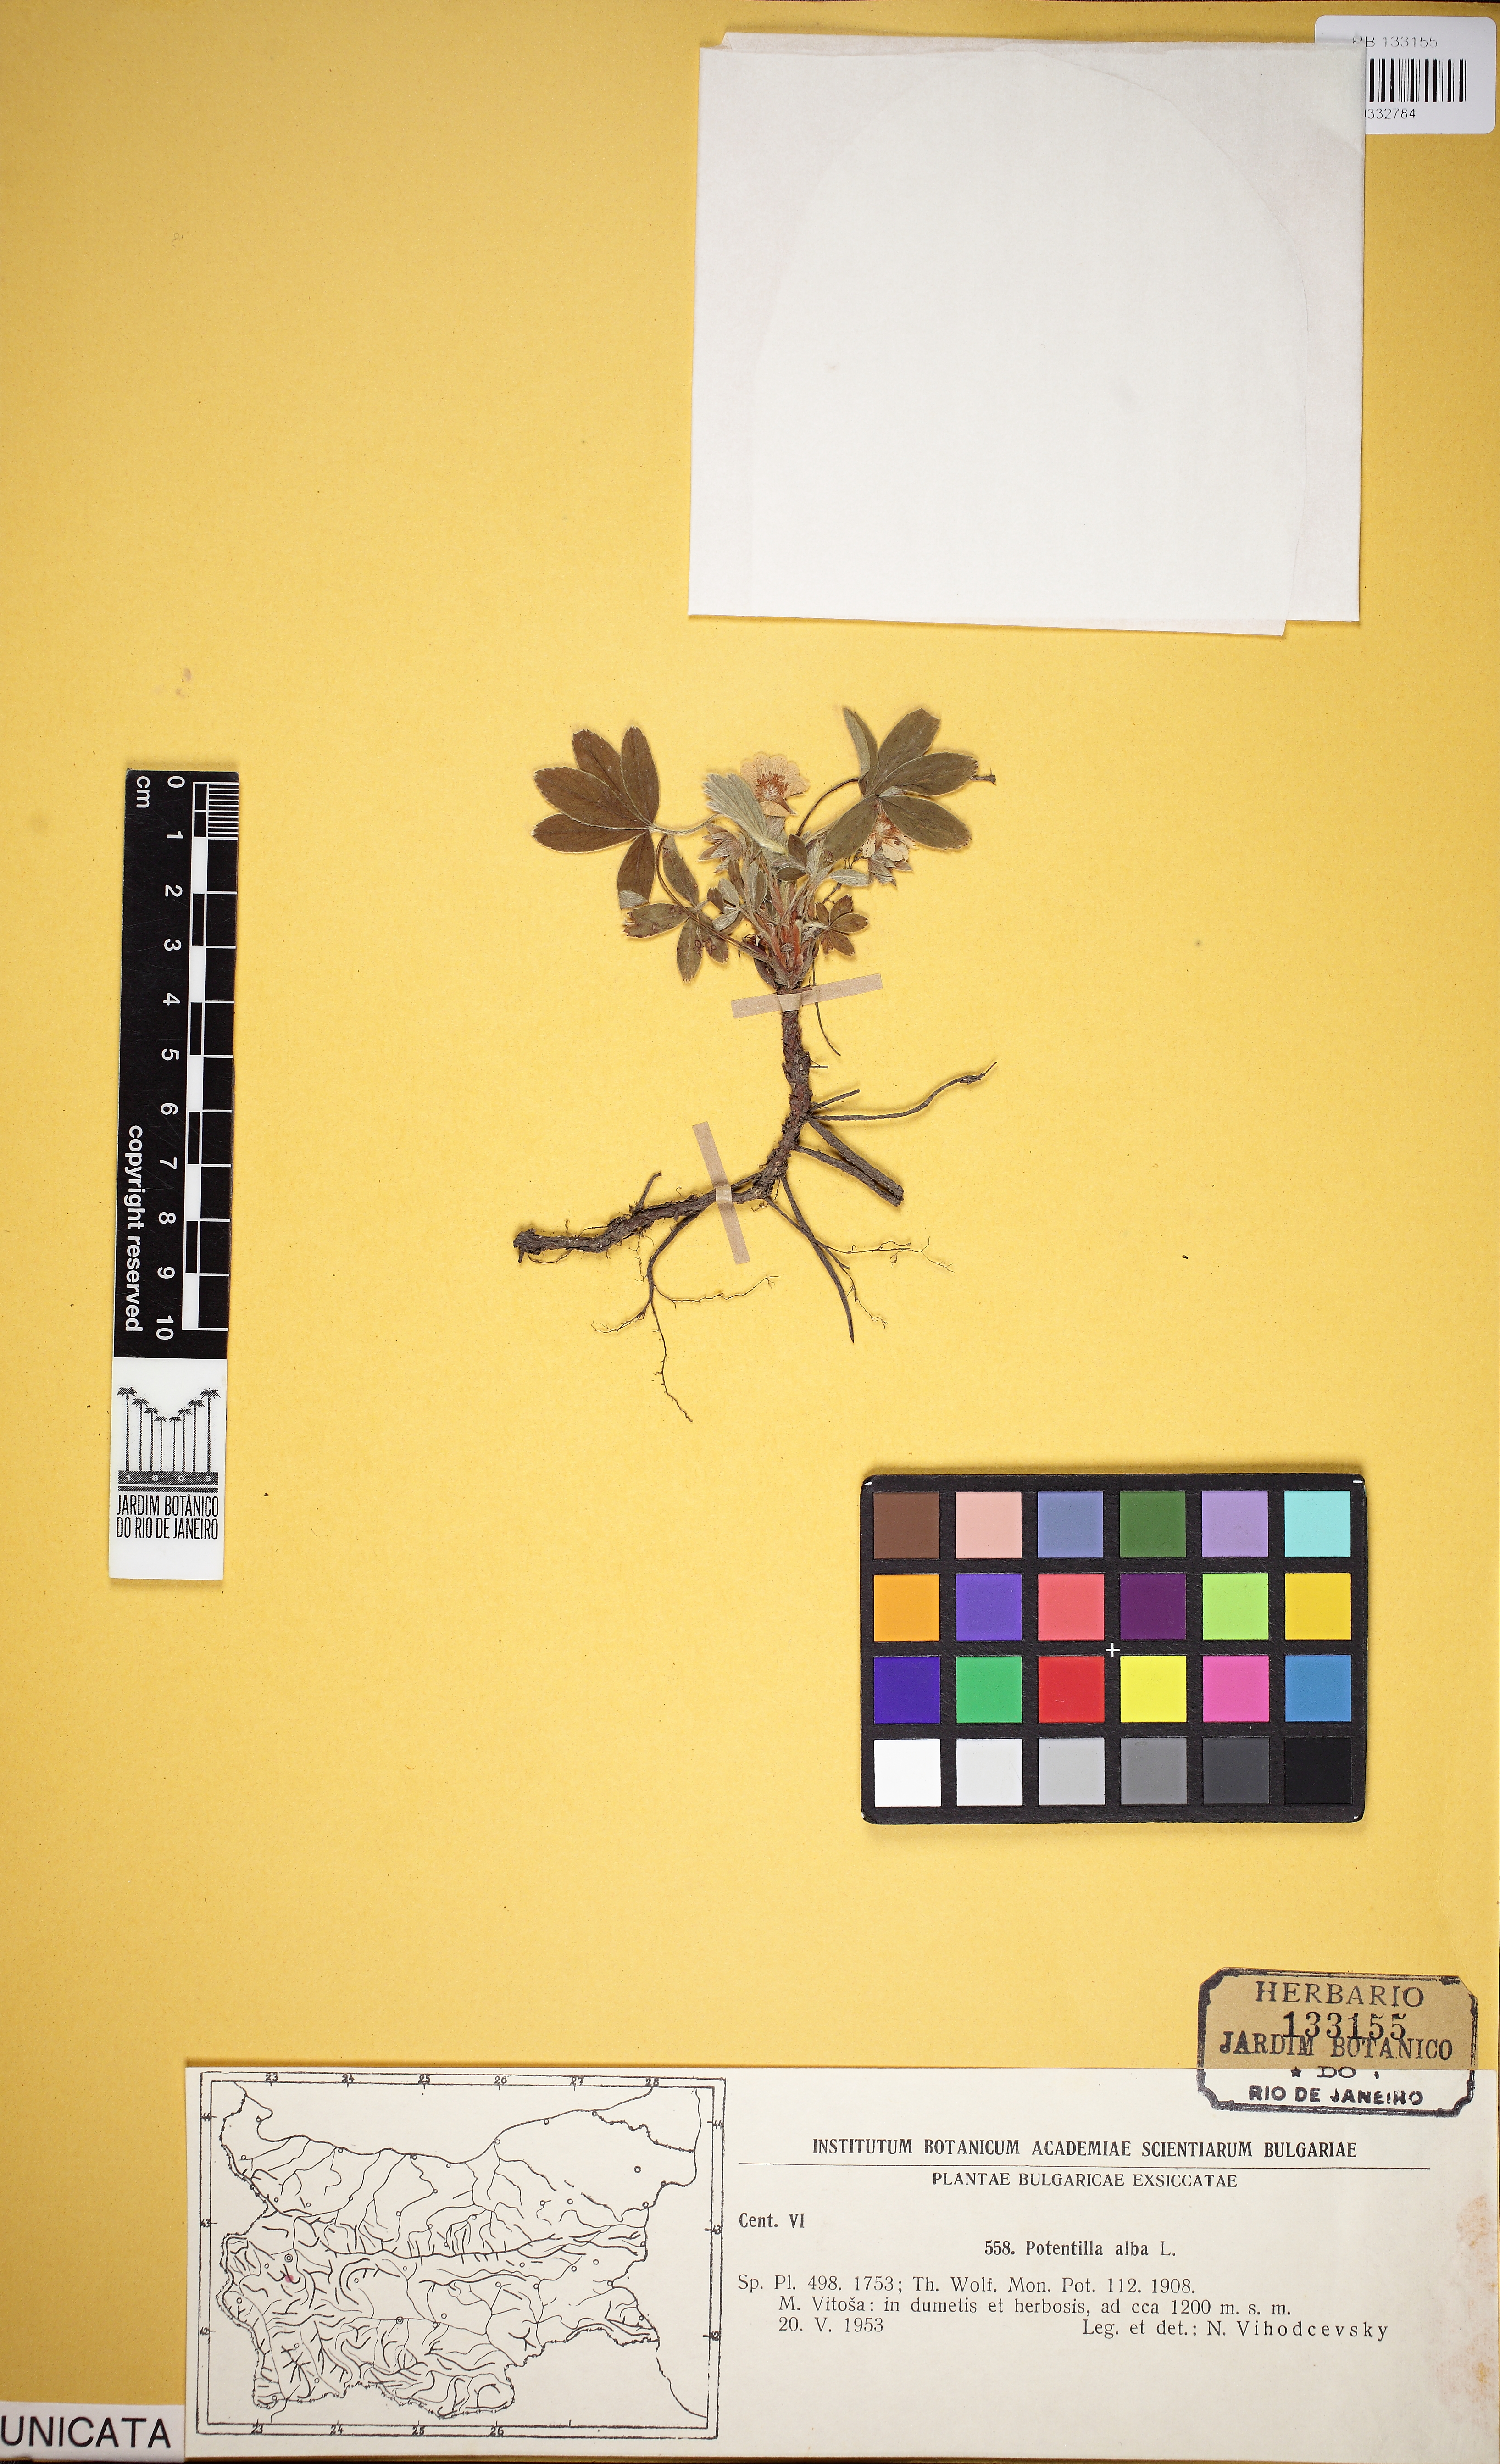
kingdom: Plantae
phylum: Tracheophyta
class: Magnoliopsida
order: Rosales
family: Rosaceae
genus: Potentilla
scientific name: Potentilla alba
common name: White cinquefoil
